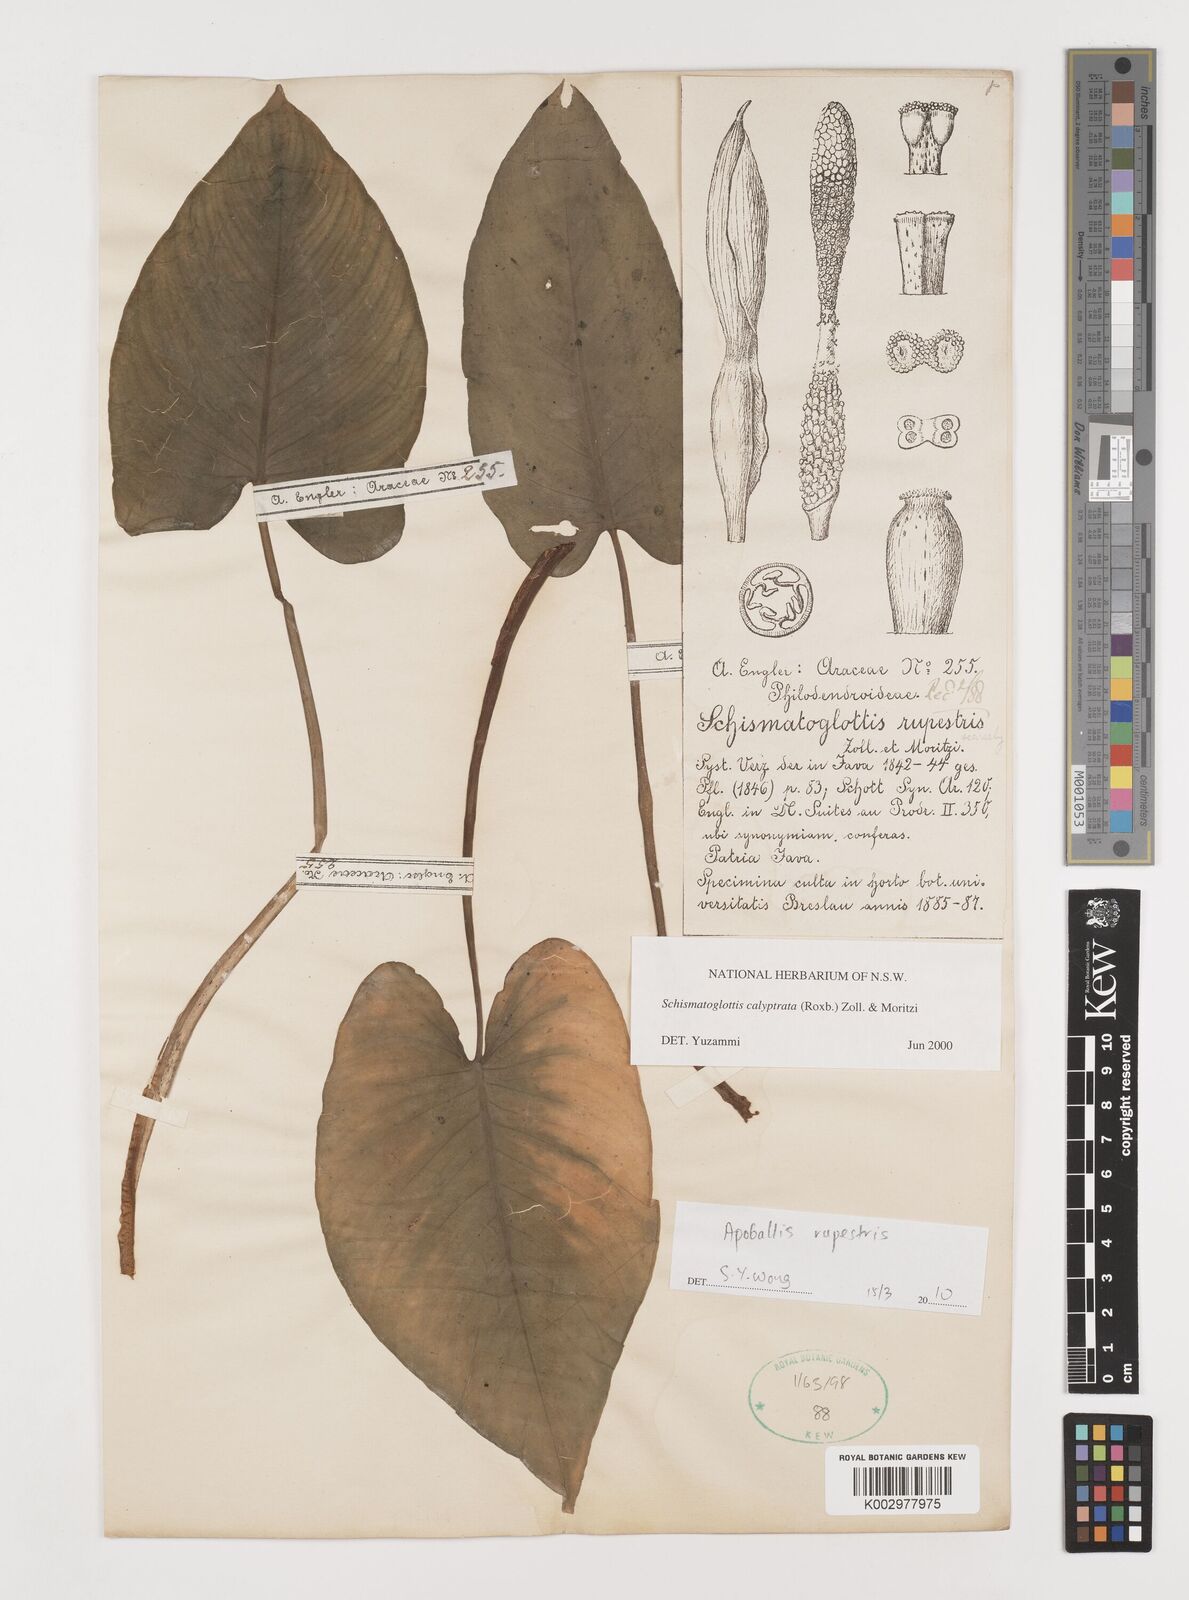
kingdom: Plantae
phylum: Tracheophyta
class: Liliopsida
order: Alismatales
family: Araceae
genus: Schismatoglottis
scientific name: Schismatoglottis calyptrata
